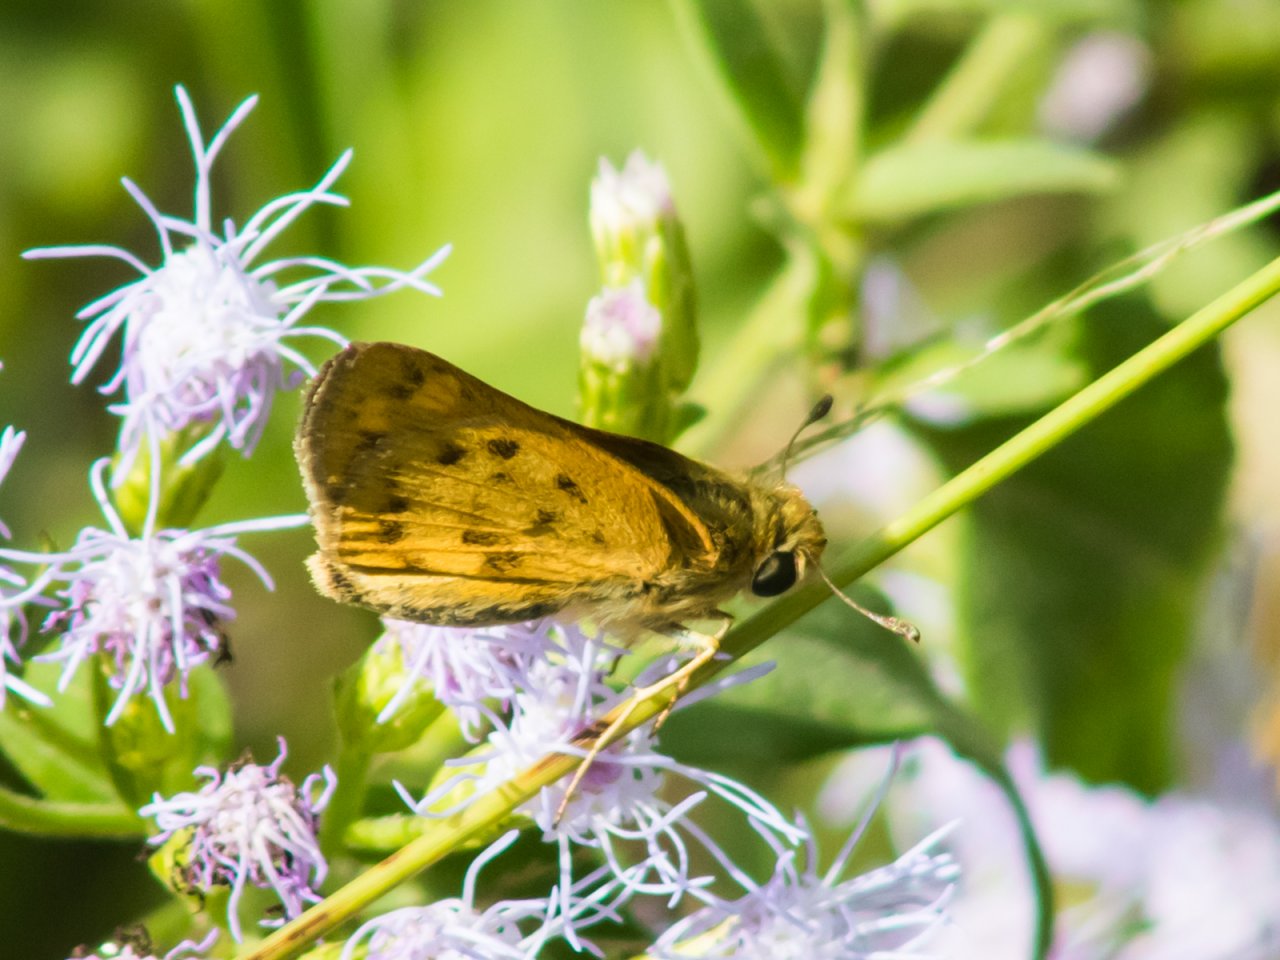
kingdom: Animalia
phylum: Arthropoda
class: Insecta
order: Lepidoptera
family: Hesperiidae
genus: Hylephila
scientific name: Hylephila phyleus
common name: Fiery Skipper
